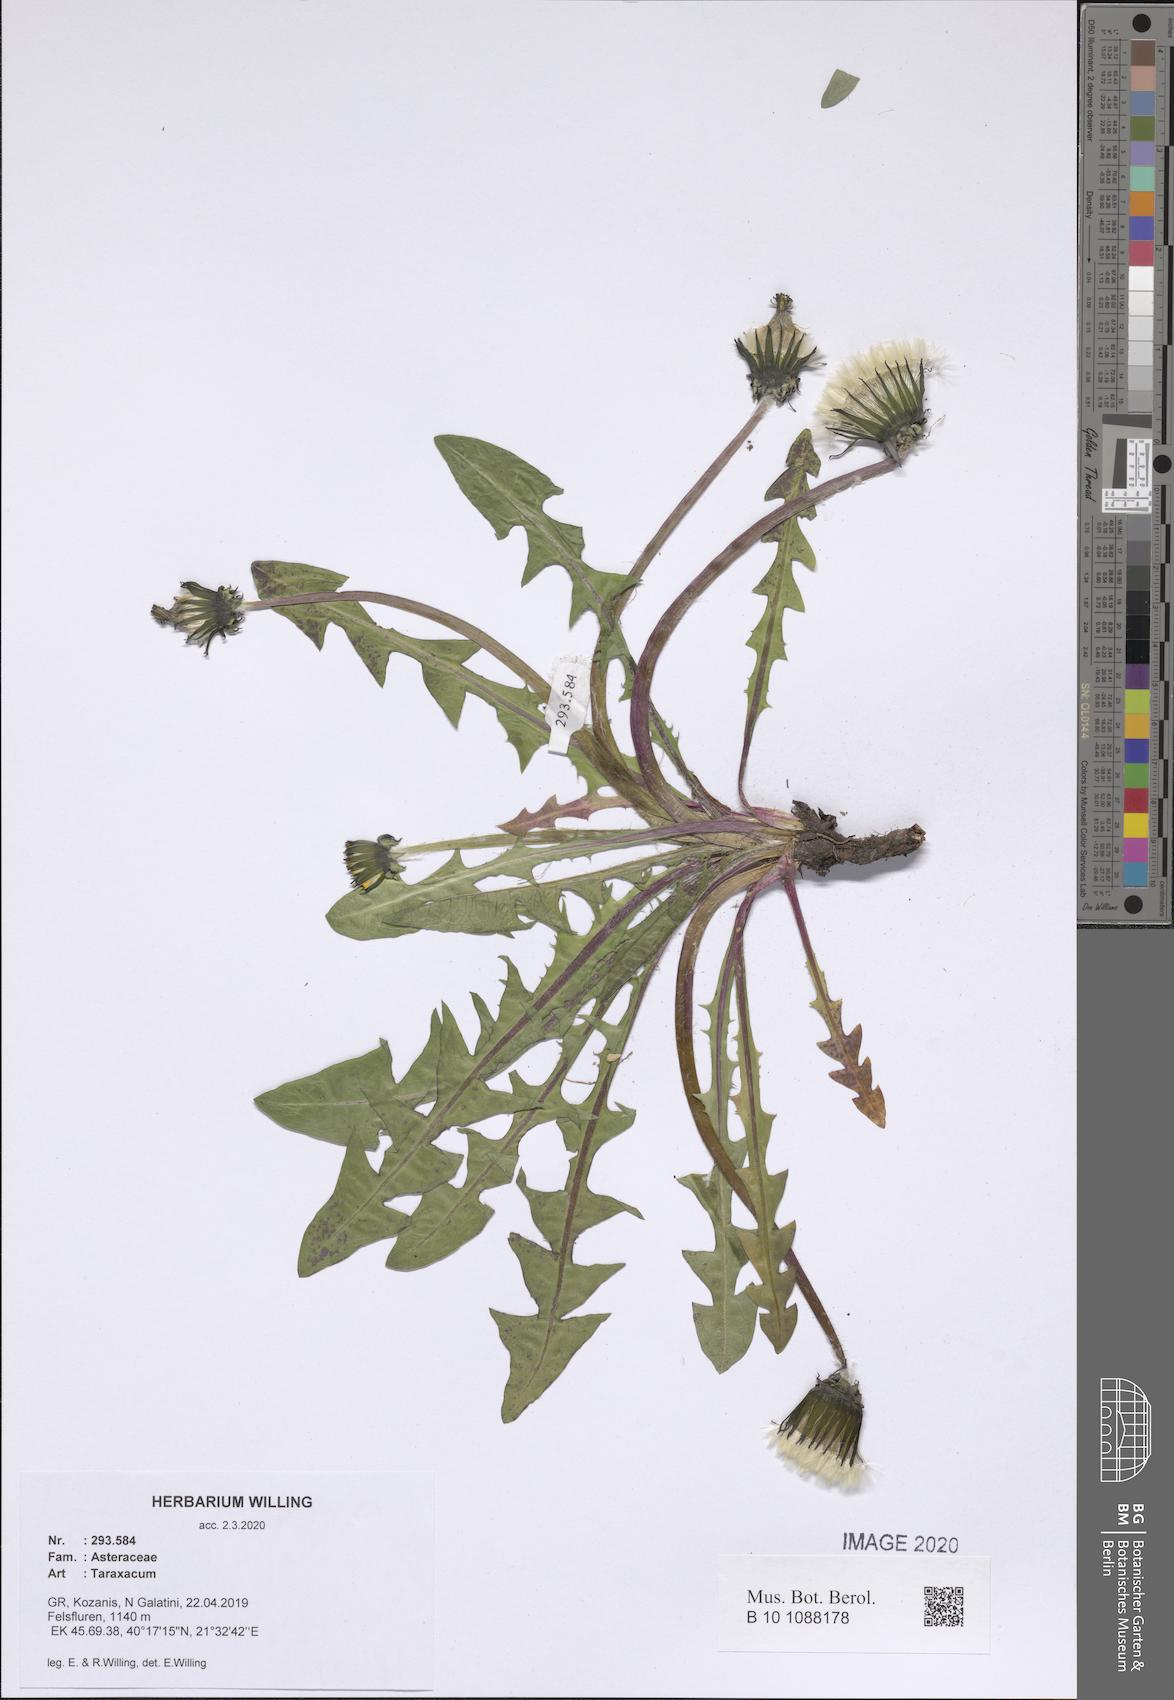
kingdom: Plantae
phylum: Tracheophyta
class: Magnoliopsida
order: Asterales
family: Asteraceae
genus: Taraxacum
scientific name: Taraxacum
